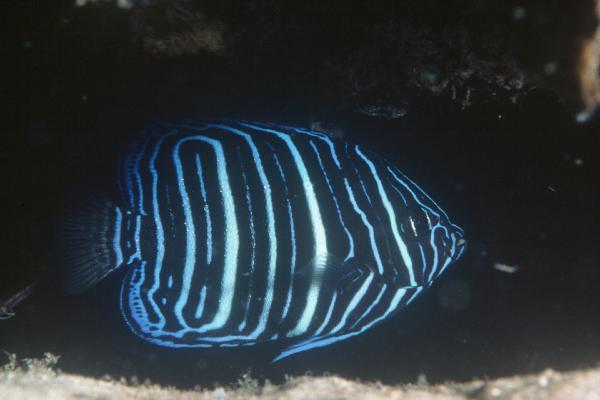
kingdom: Animalia
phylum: Chordata
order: Perciformes
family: Pomacanthidae
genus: Pomacanthus
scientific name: Pomacanthus rhomboides
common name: Old woman
